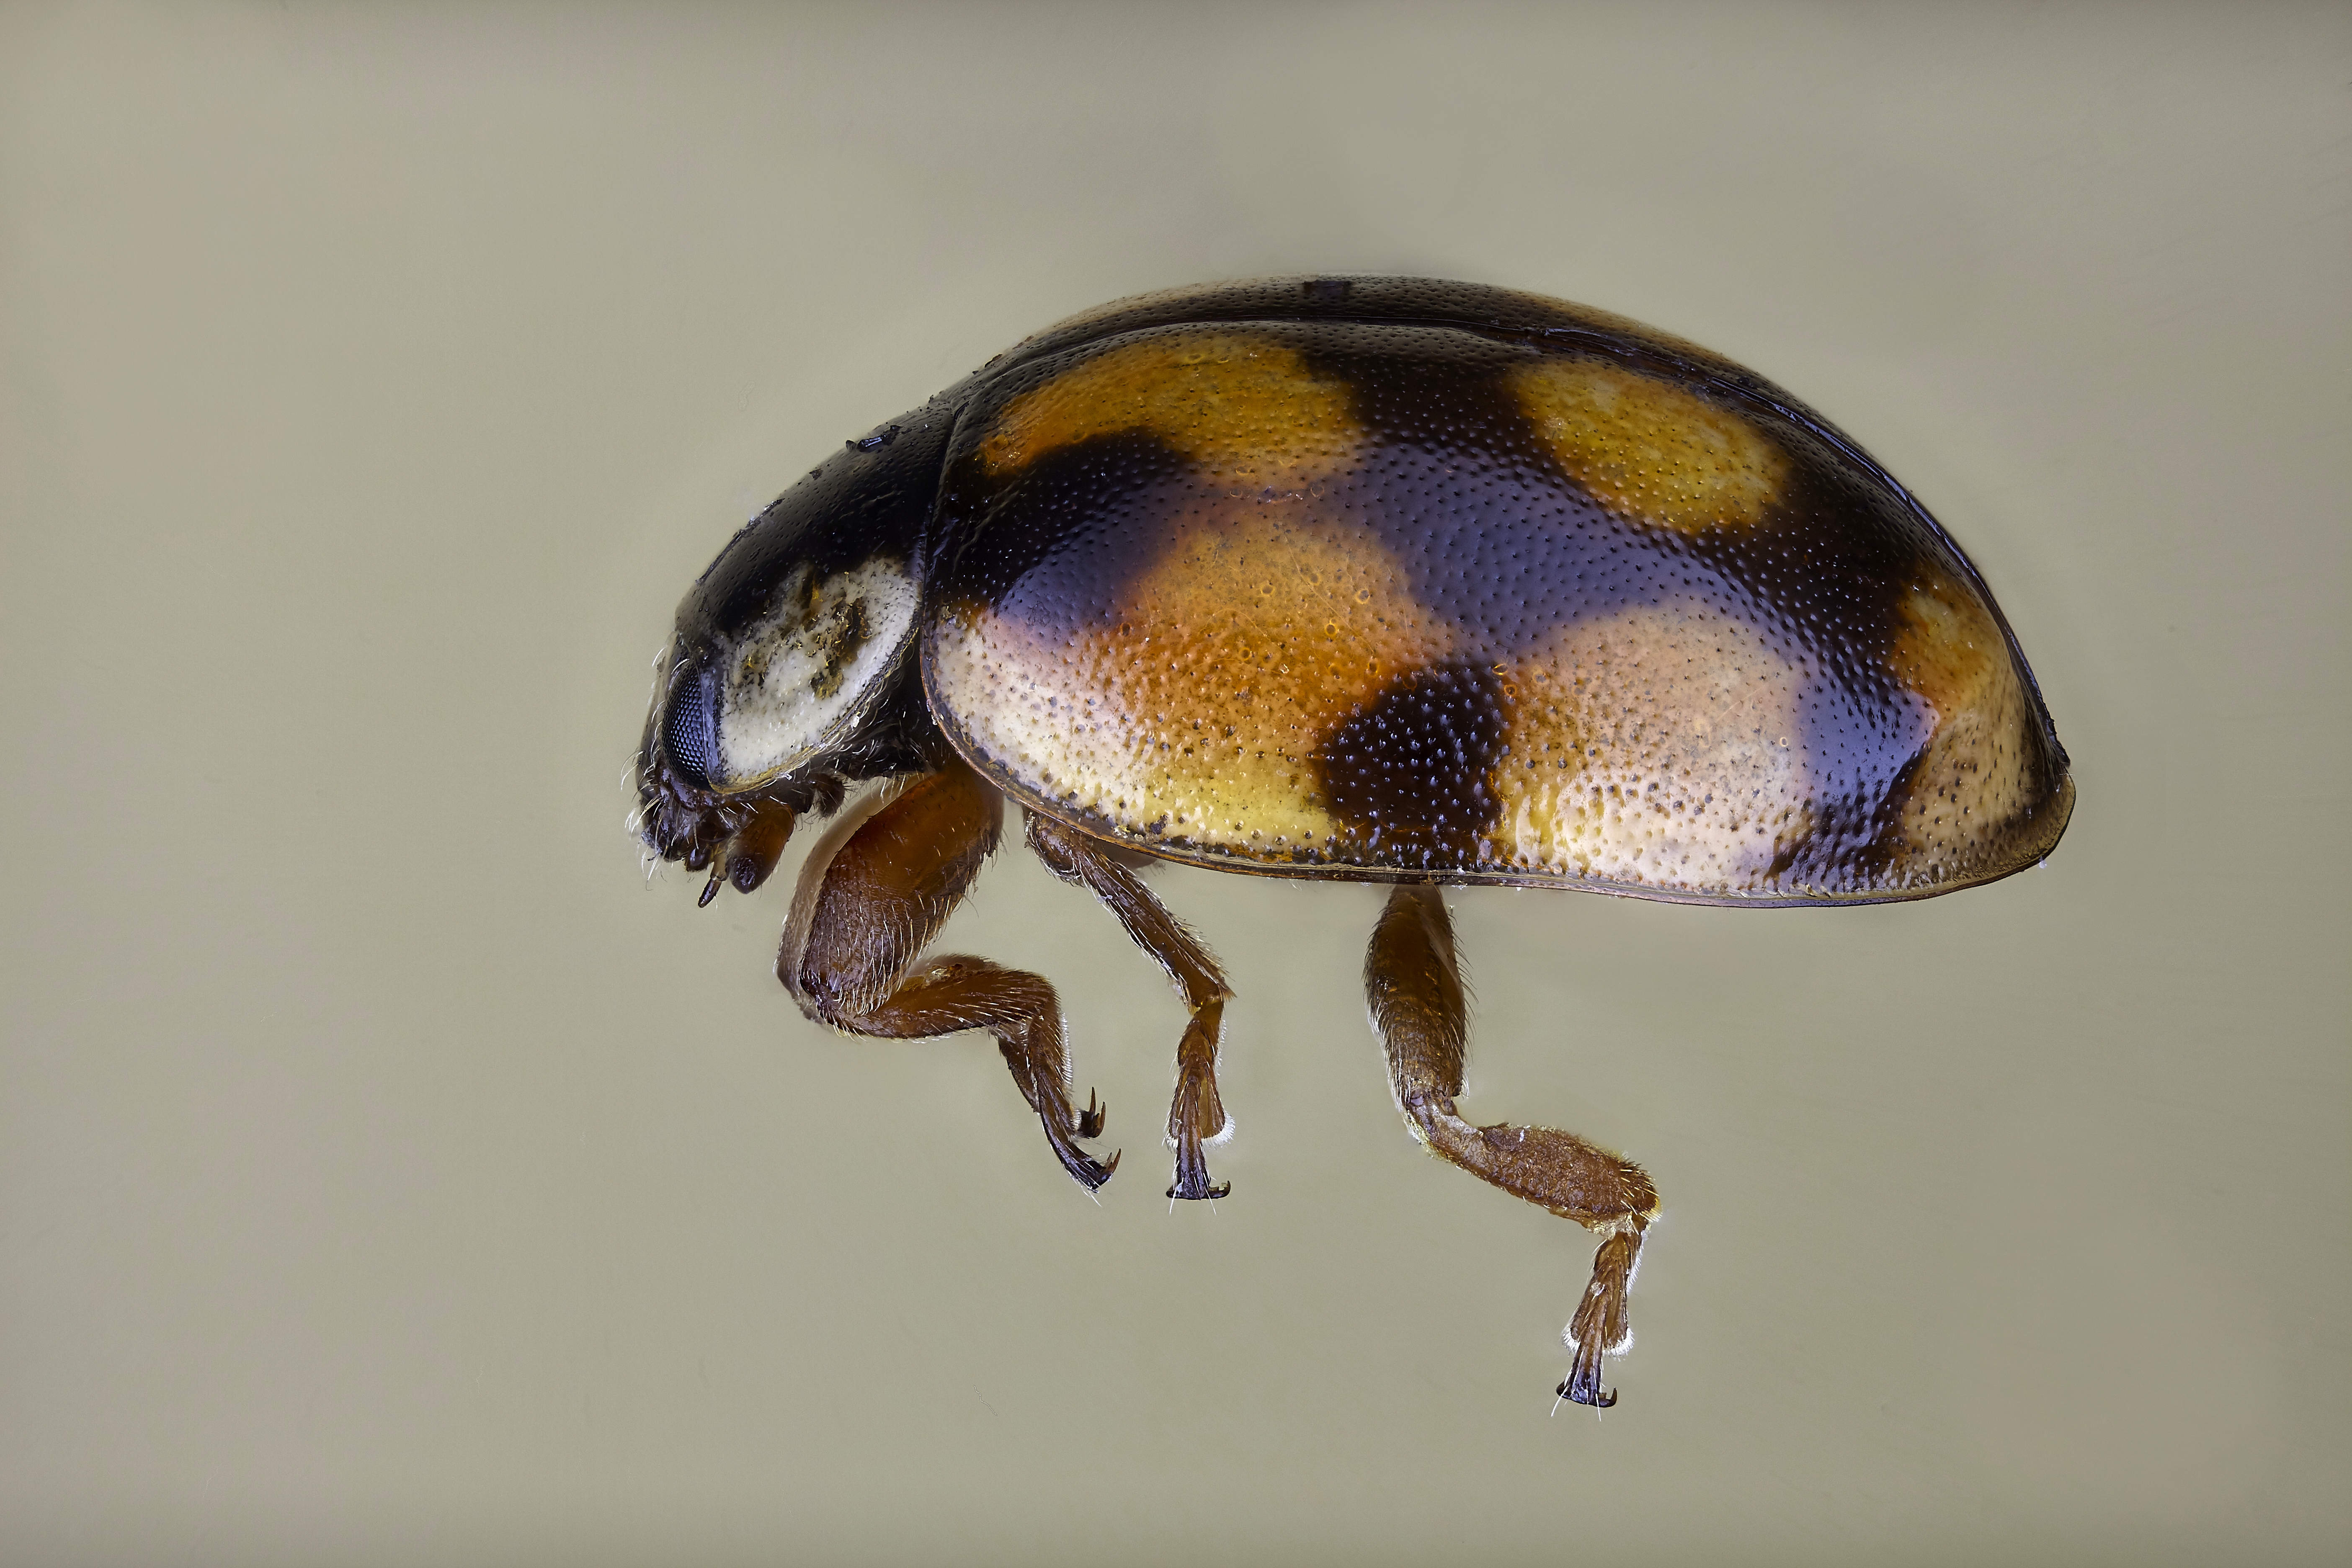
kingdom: Animalia
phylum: Arthropoda
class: Insecta
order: Coleoptera
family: Coccinellidae
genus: Adalia
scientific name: Adalia decempunctata
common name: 10-spot ladybird
